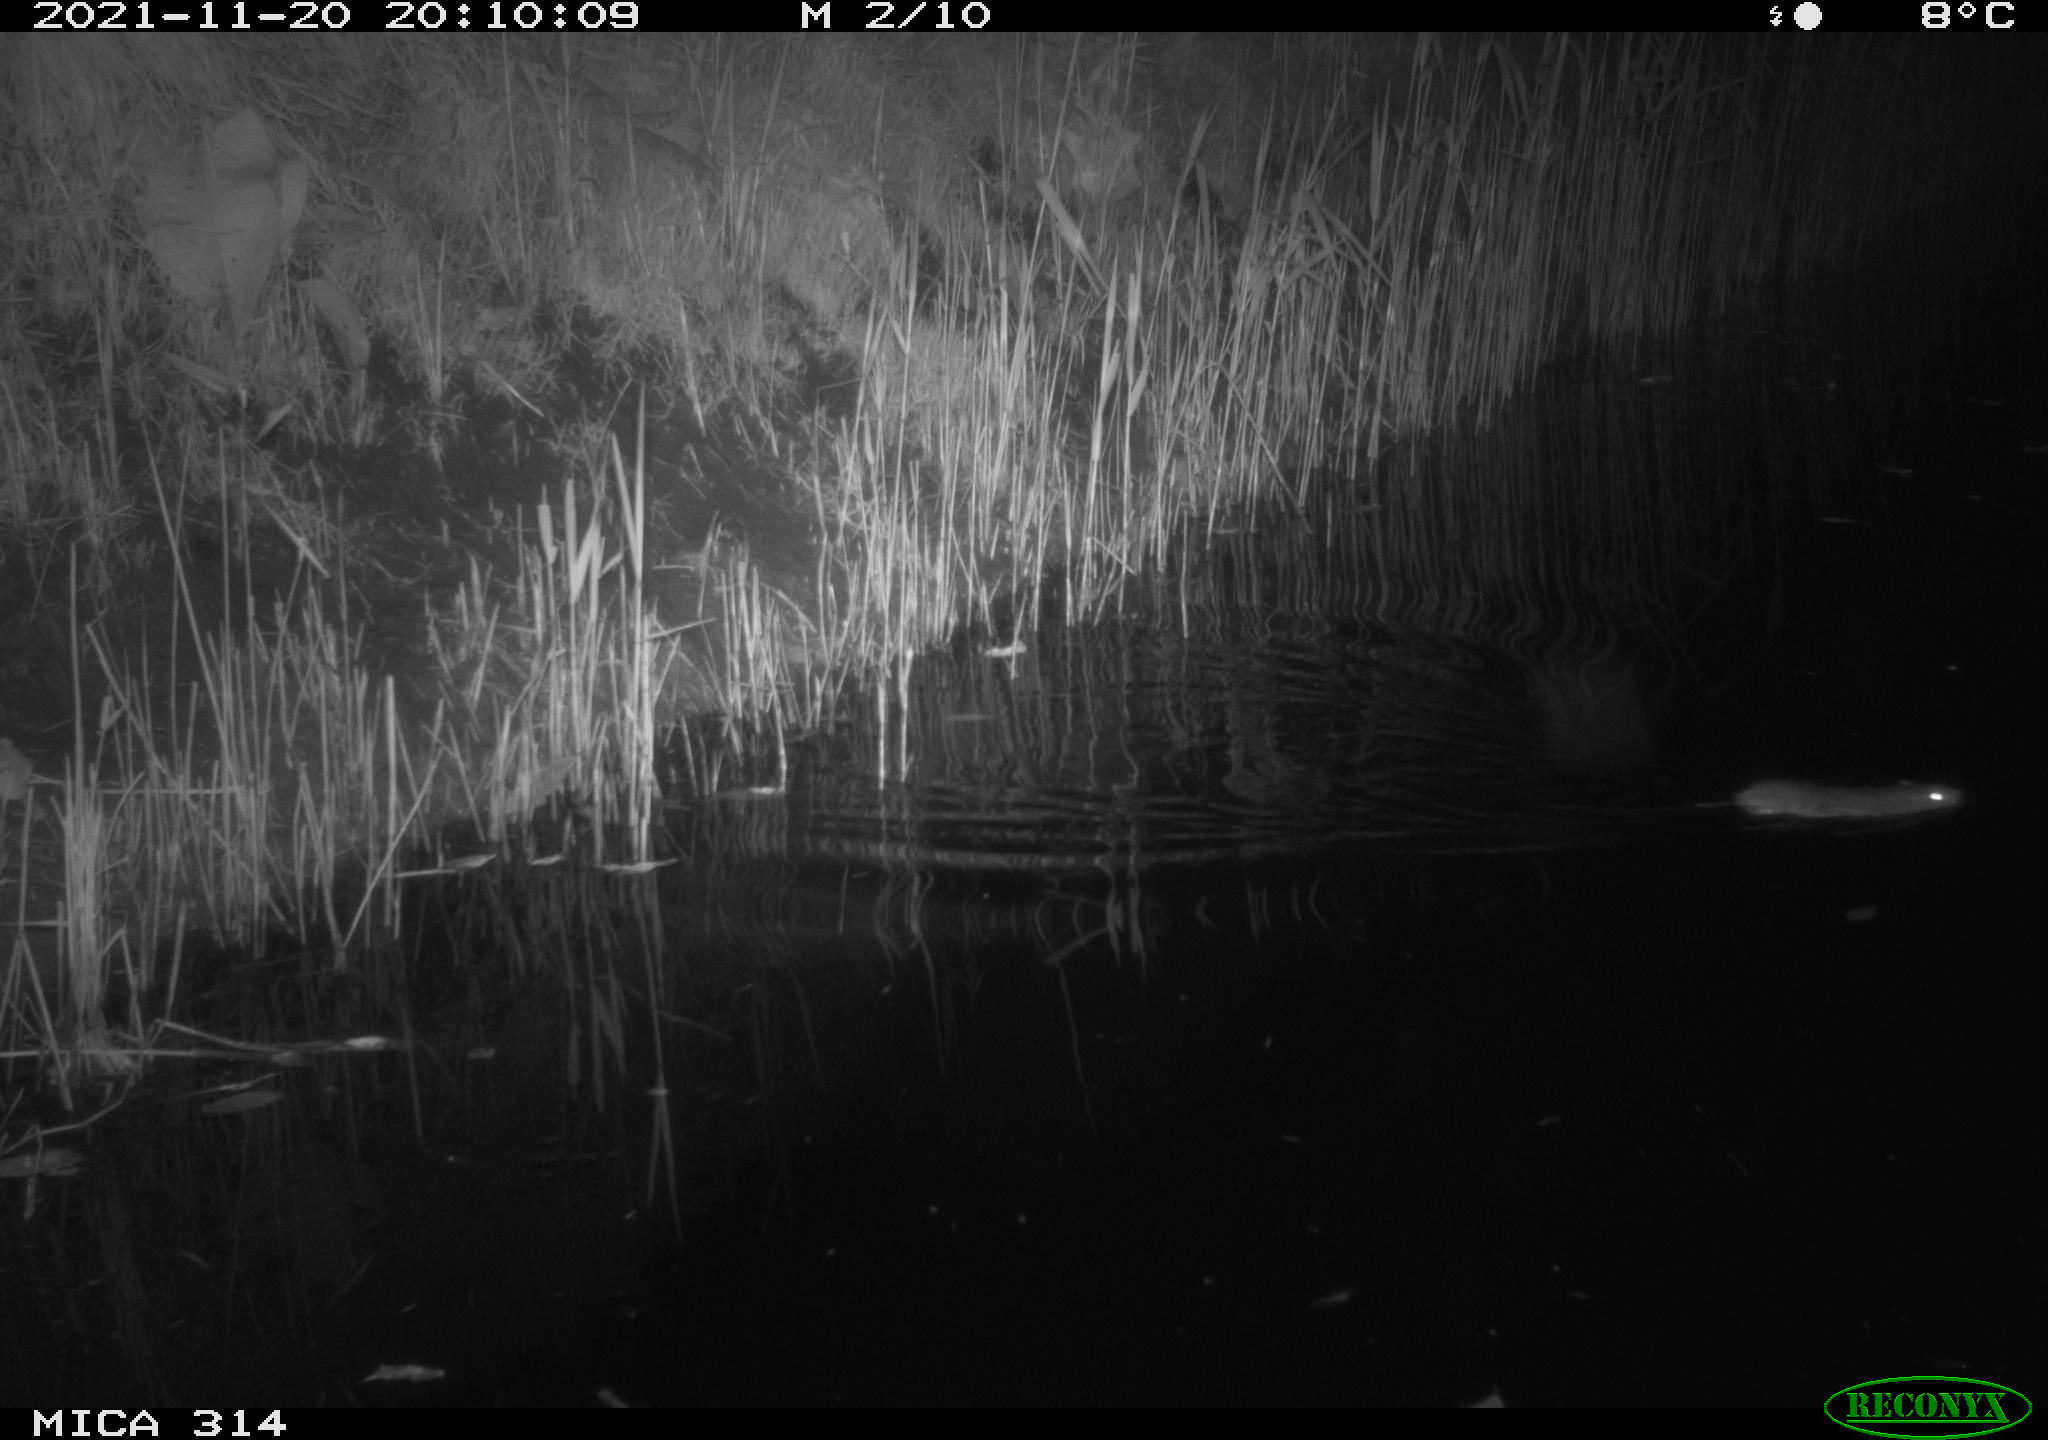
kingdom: Animalia
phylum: Chordata
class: Mammalia
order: Rodentia
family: Muridae
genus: Rattus
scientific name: Rattus norvegicus
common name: Brown rat
